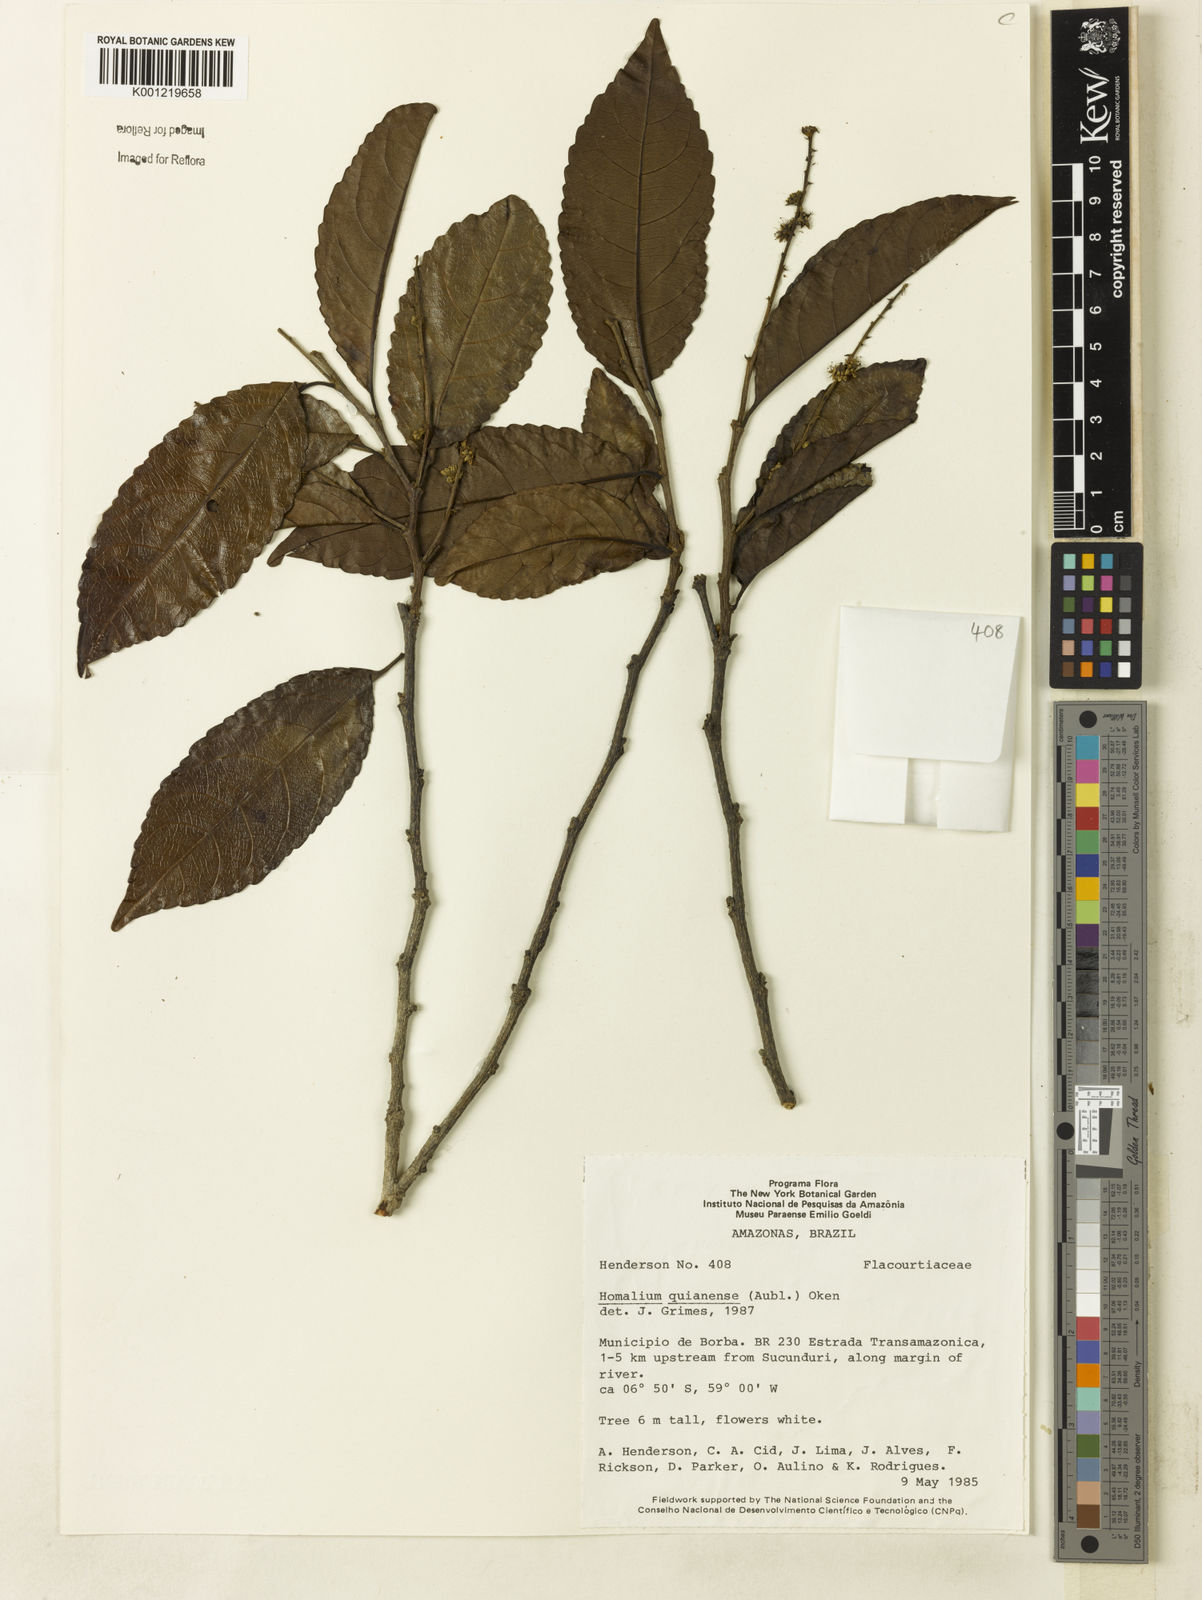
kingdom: Plantae
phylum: Tracheophyta
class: Magnoliopsida
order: Malpighiales
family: Salicaceae
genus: Homalium
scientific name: Homalium guianense
